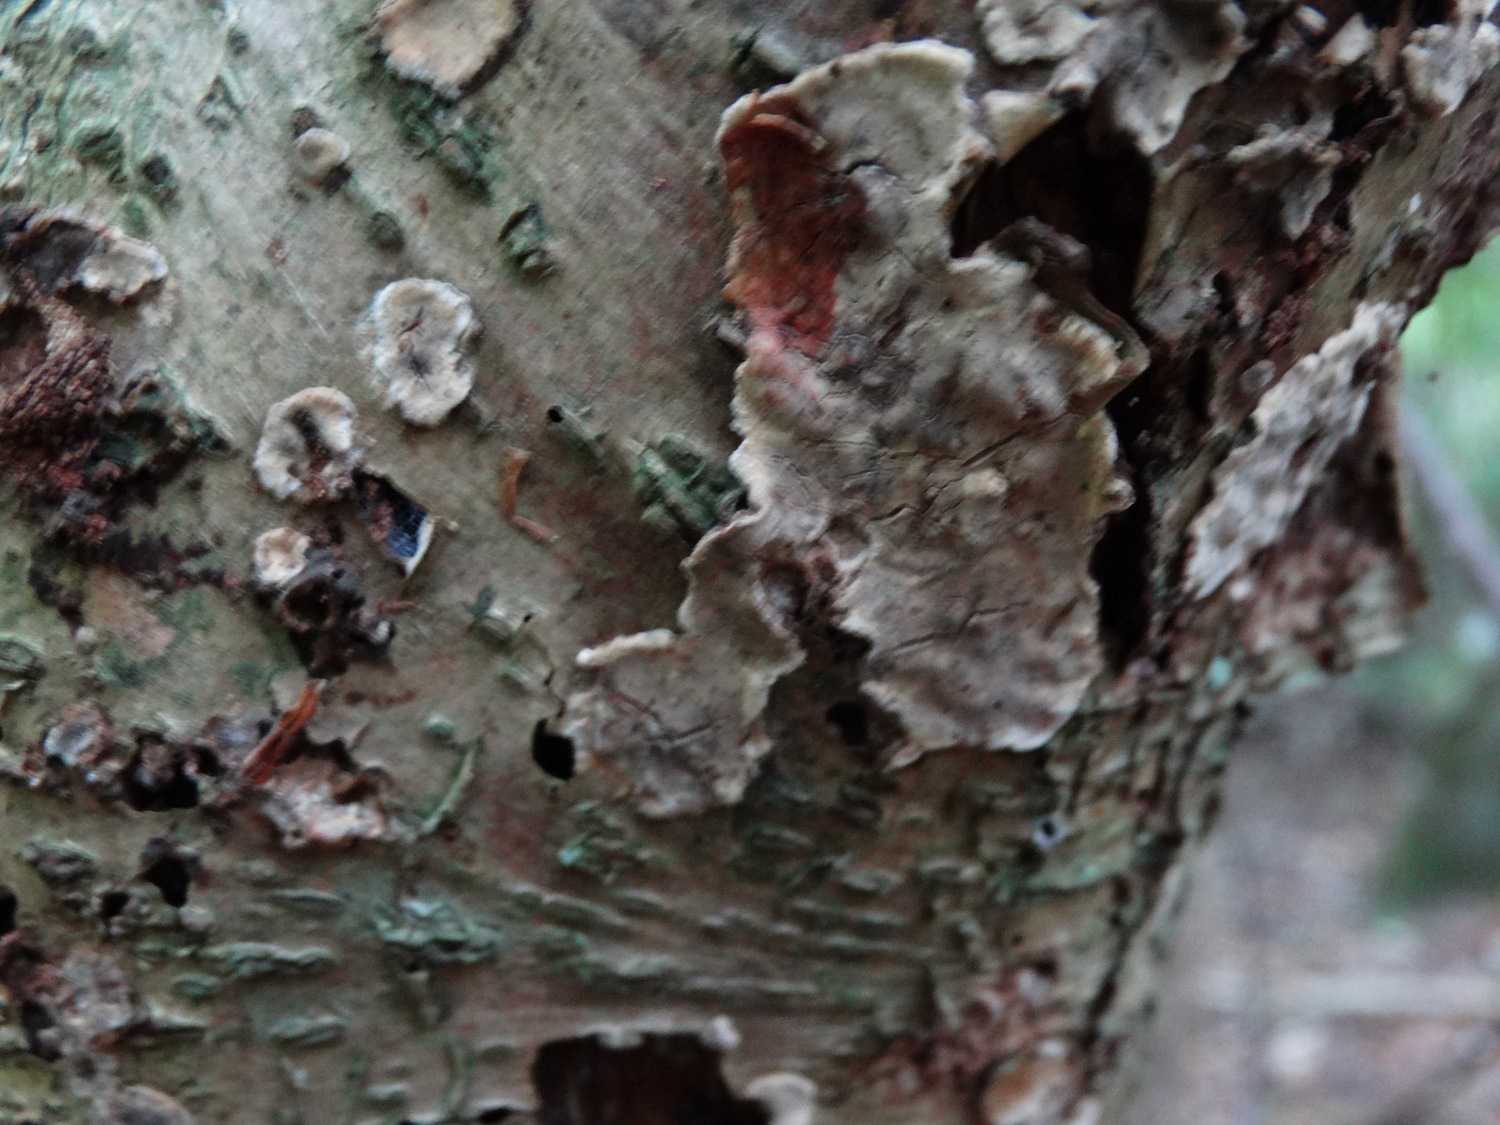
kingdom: Fungi
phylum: Basidiomycota
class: Agaricomycetes
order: Russulales
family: Stereaceae
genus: Stereum
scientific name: Stereum rugosum
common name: rynket lædersvamp
